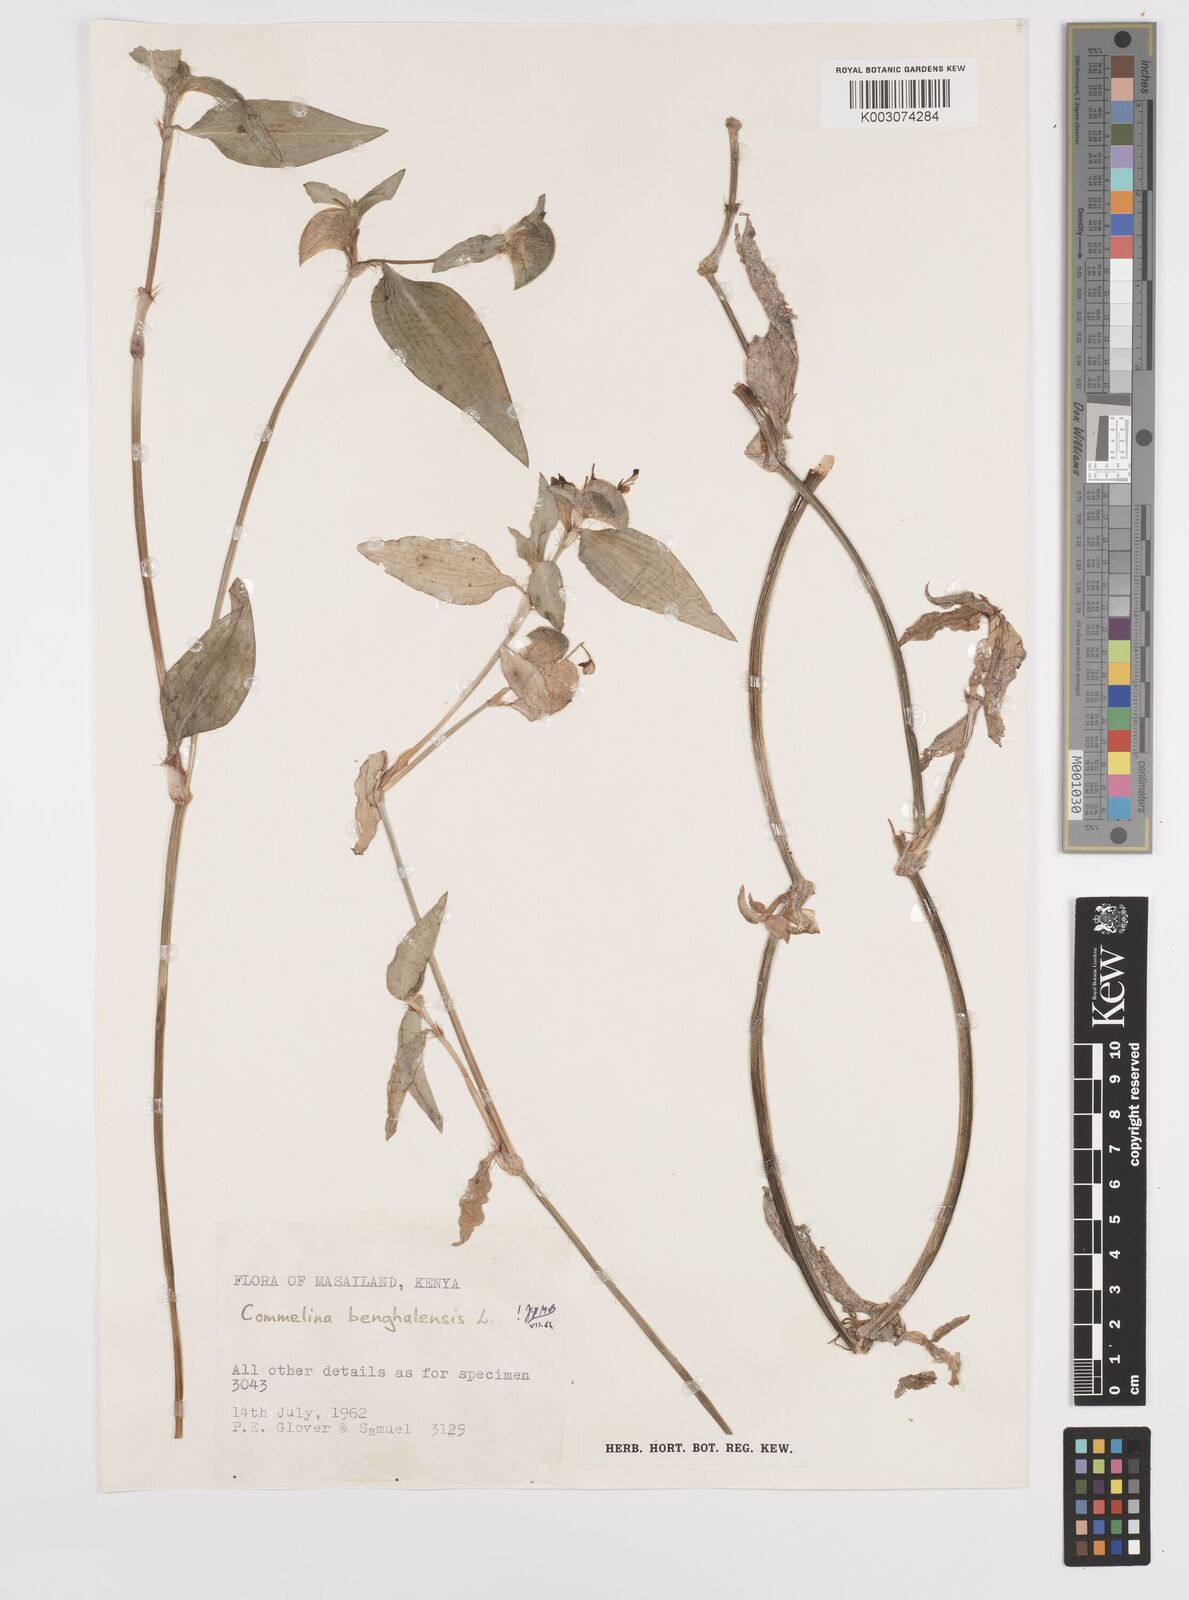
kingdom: Plantae
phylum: Tracheophyta
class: Liliopsida
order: Commelinales
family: Commelinaceae
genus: Commelina
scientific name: Commelina benghalensis
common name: Jio
